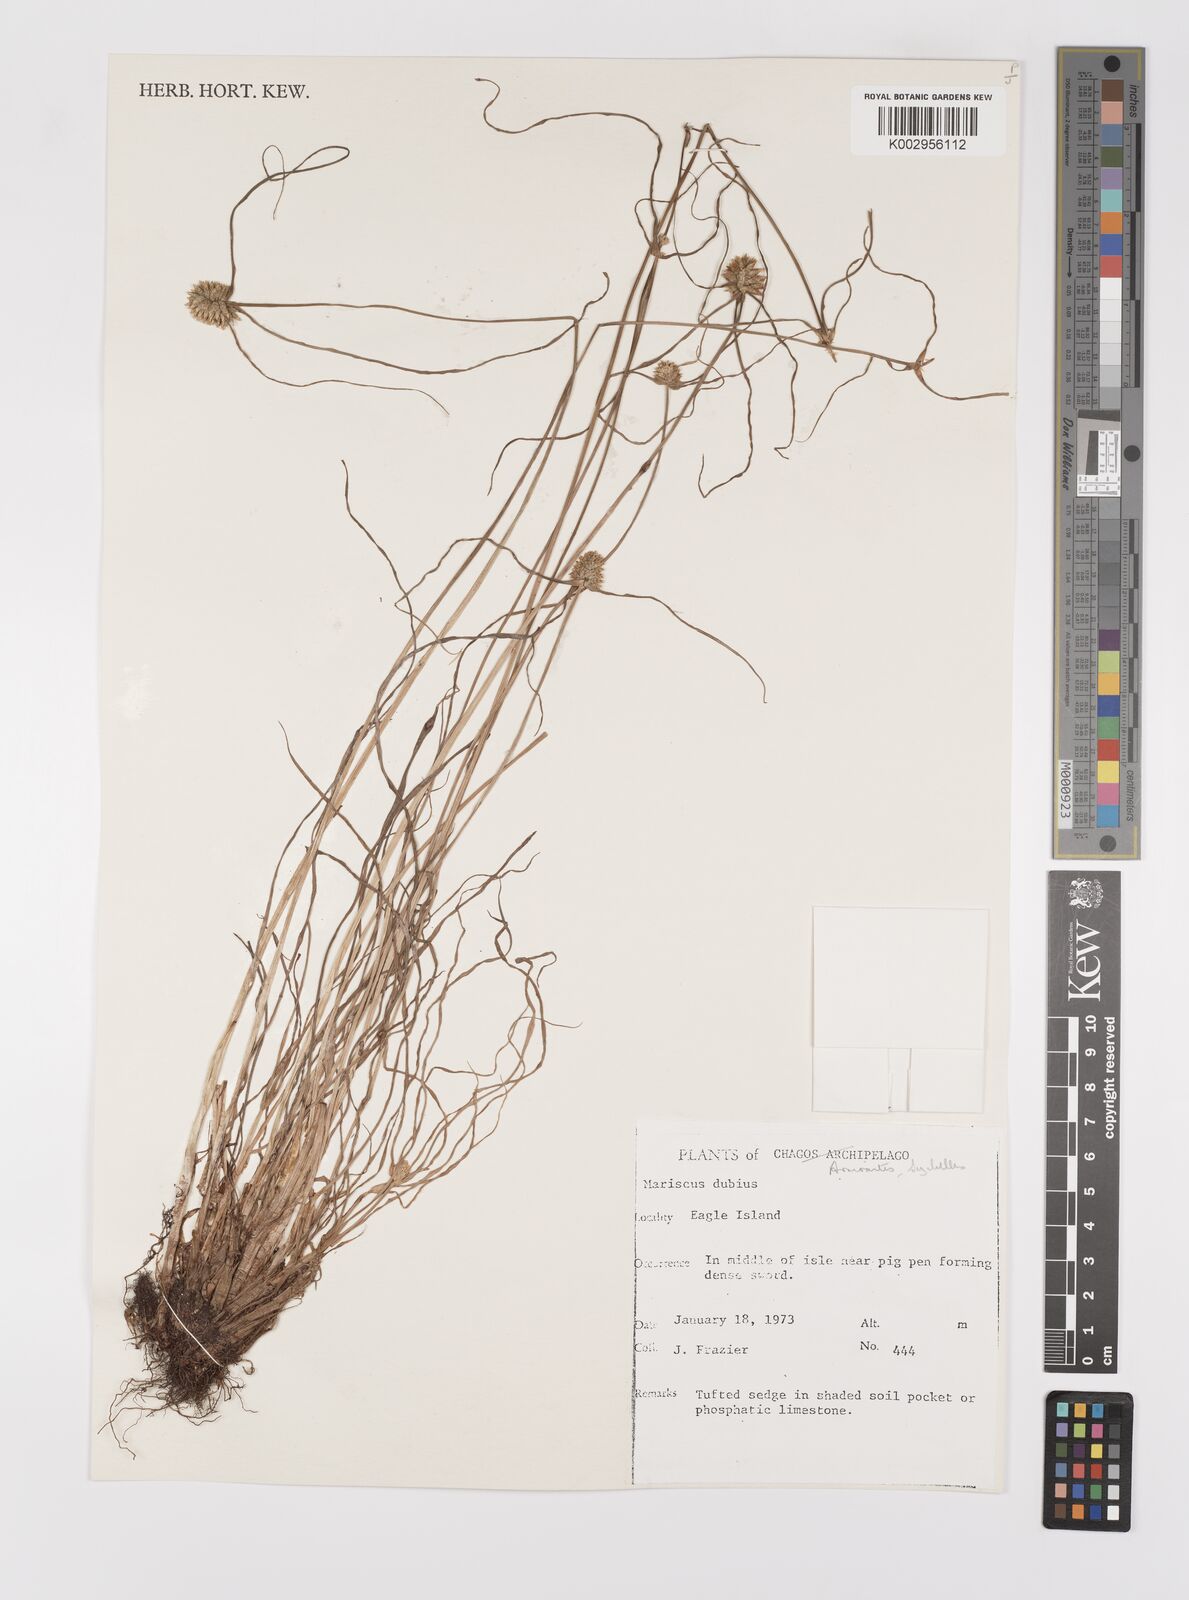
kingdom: Plantae
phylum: Tracheophyta
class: Liliopsida
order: Poales
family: Cyperaceae
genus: Cyperus
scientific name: Cyperus dubius
